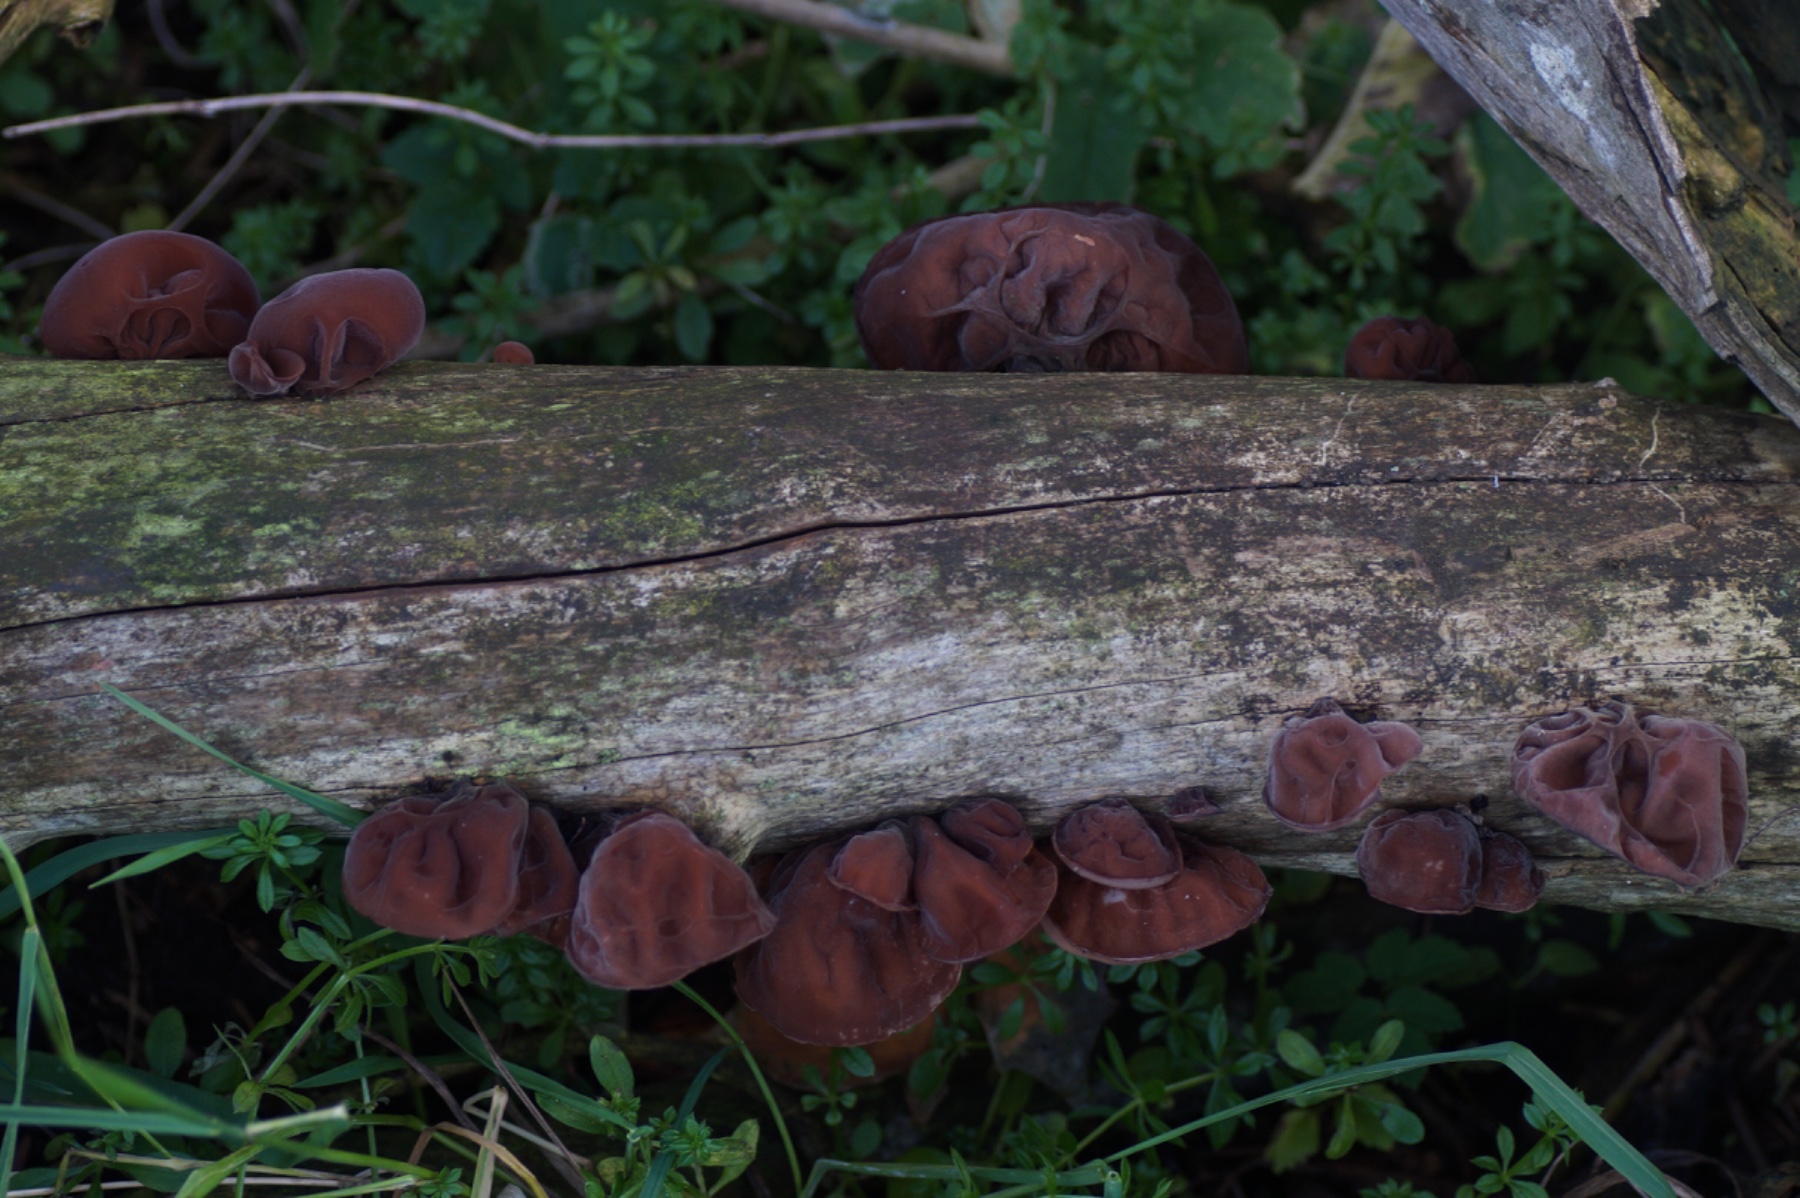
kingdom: Fungi
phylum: Basidiomycota
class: Agaricomycetes
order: Auriculariales
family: Auriculariaceae
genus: Auricularia
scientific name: Auricularia auricula-judae
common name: almindelig judasøre
